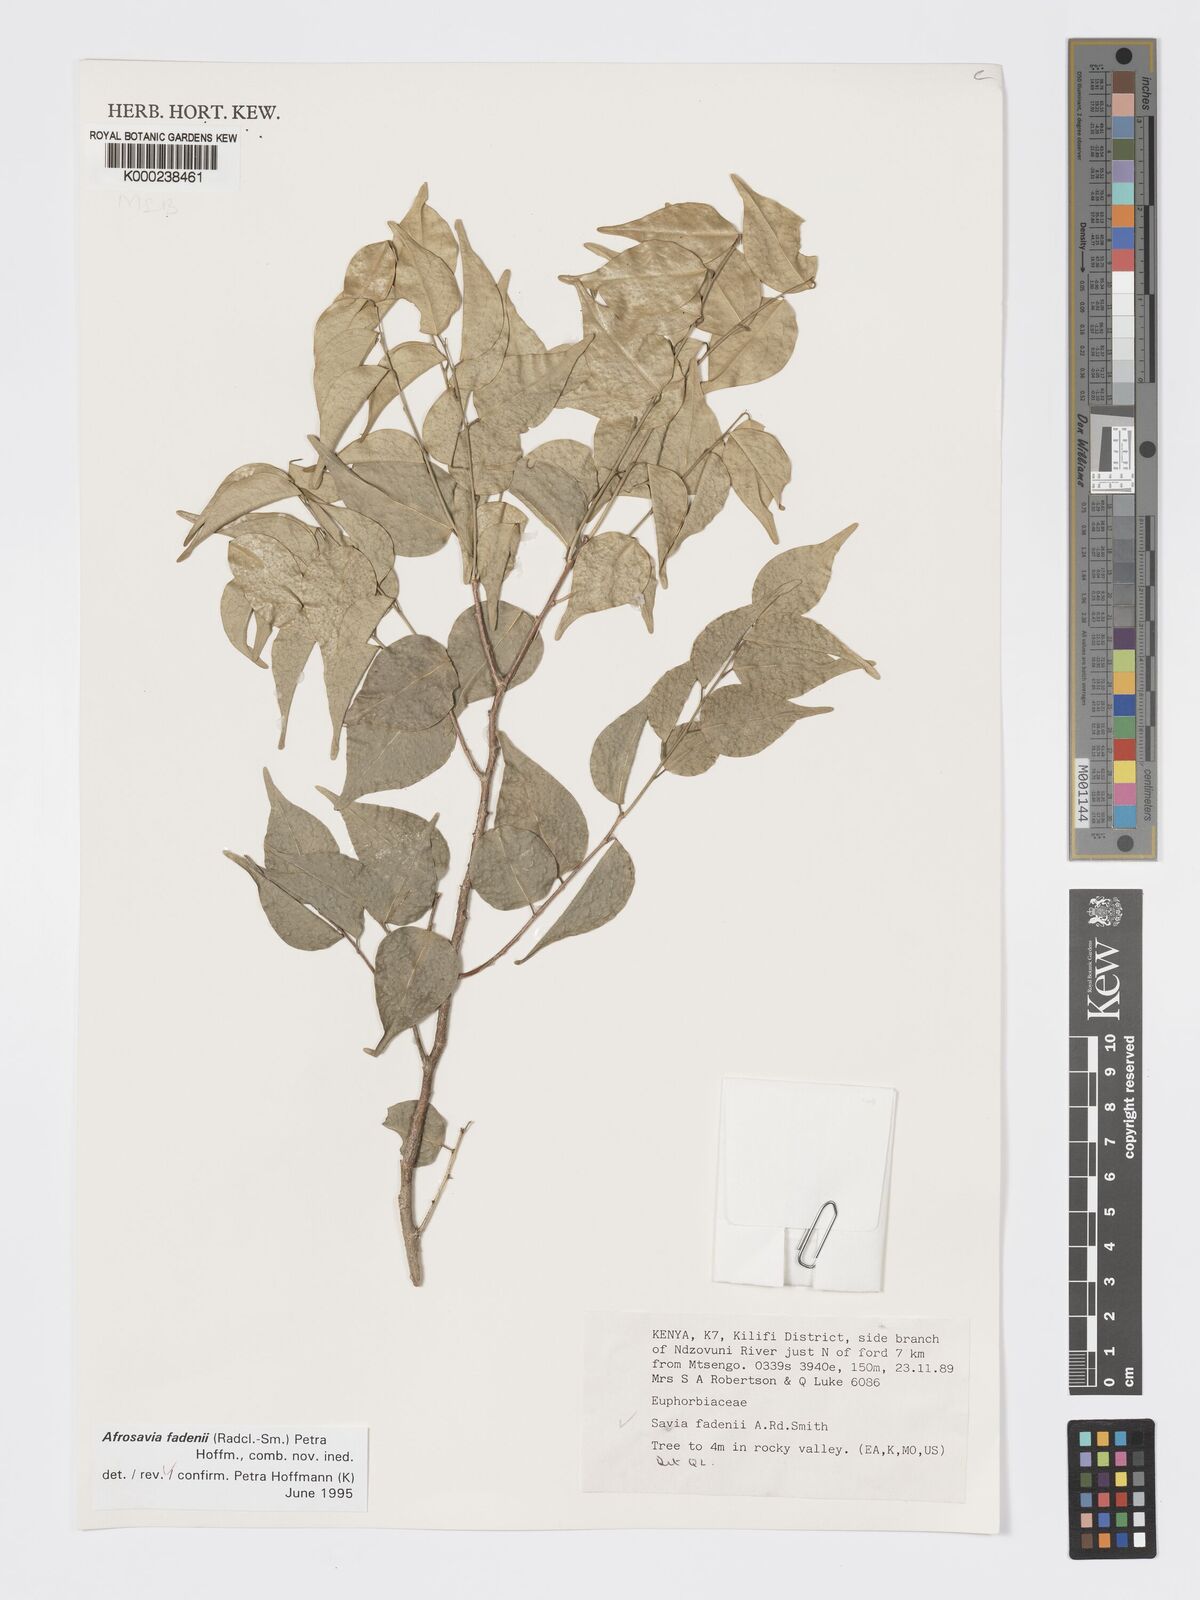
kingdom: Plantae
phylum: Tracheophyta
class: Magnoliopsida
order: Malpighiales
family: Phyllanthaceae
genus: Wielandia
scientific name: Wielandia fadenii
